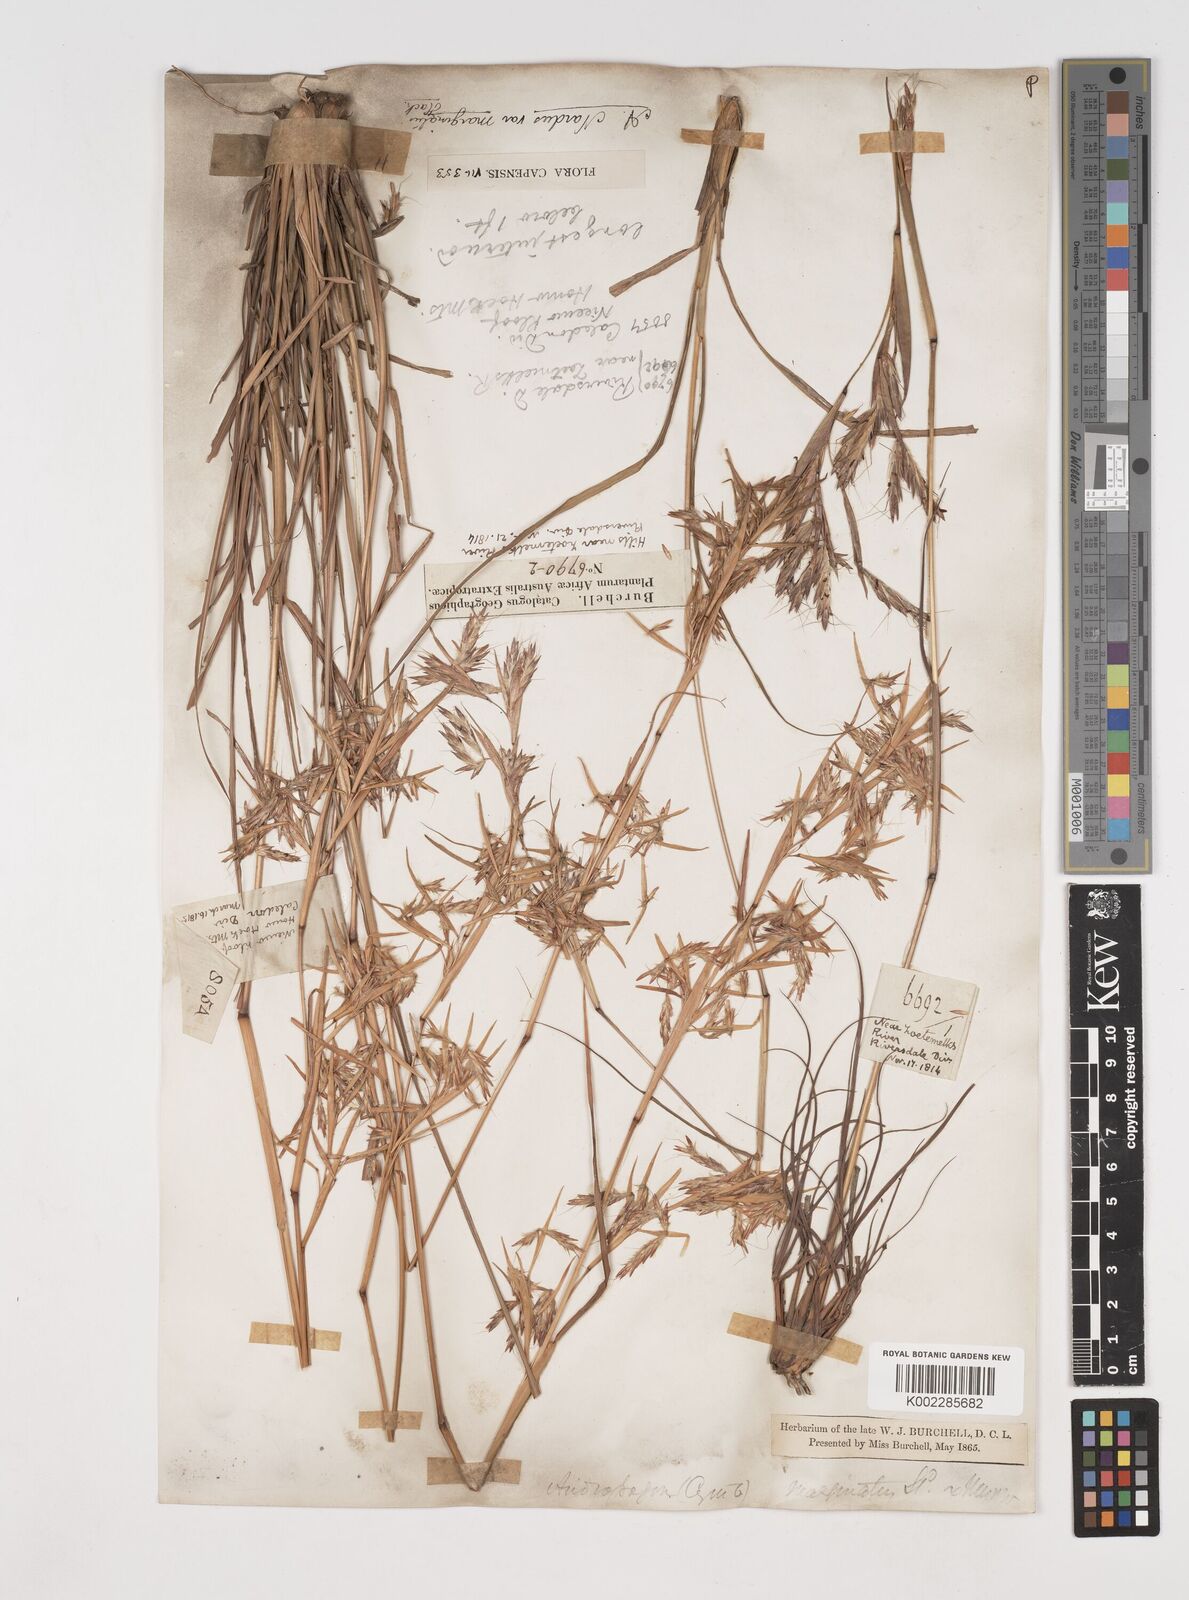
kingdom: Plantae
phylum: Tracheophyta
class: Liliopsida
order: Poales
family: Poaceae
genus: Cymbopogon
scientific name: Cymbopogon marginatus
